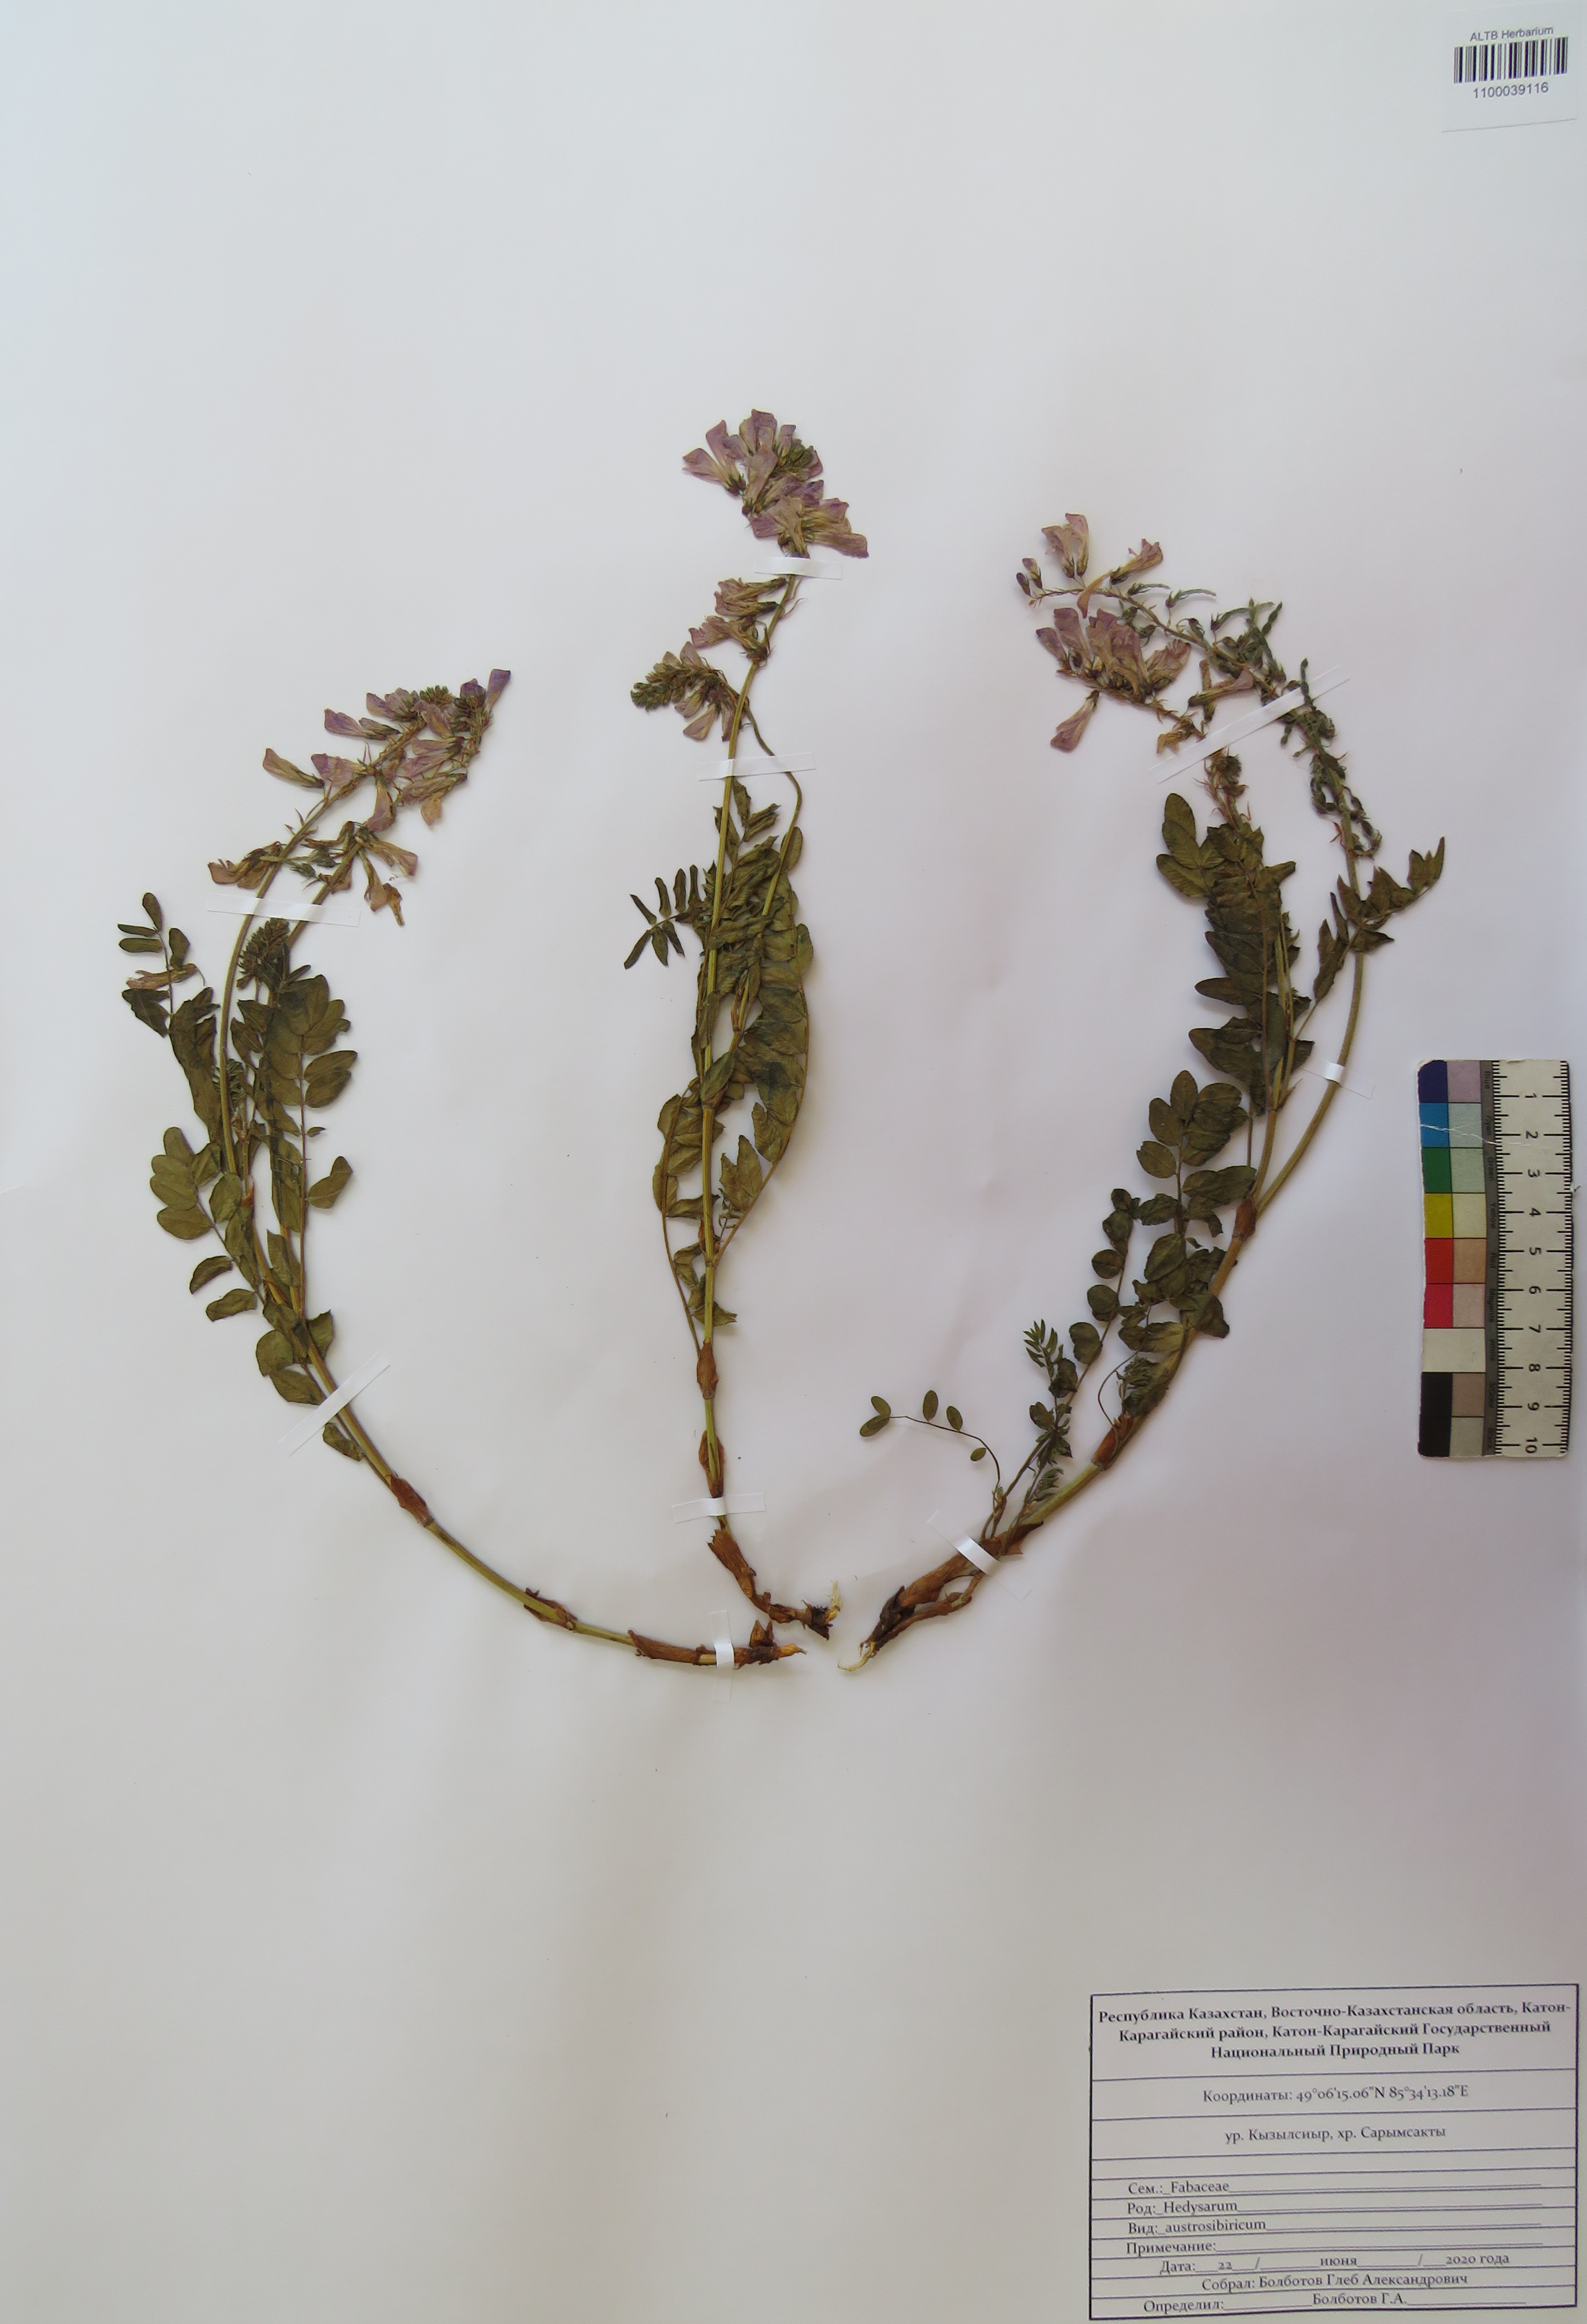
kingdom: Plantae
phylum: Tracheophyta
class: Magnoliopsida
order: Fabales
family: Fabaceae
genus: Hedysarum
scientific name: Hedysarum neglectum
